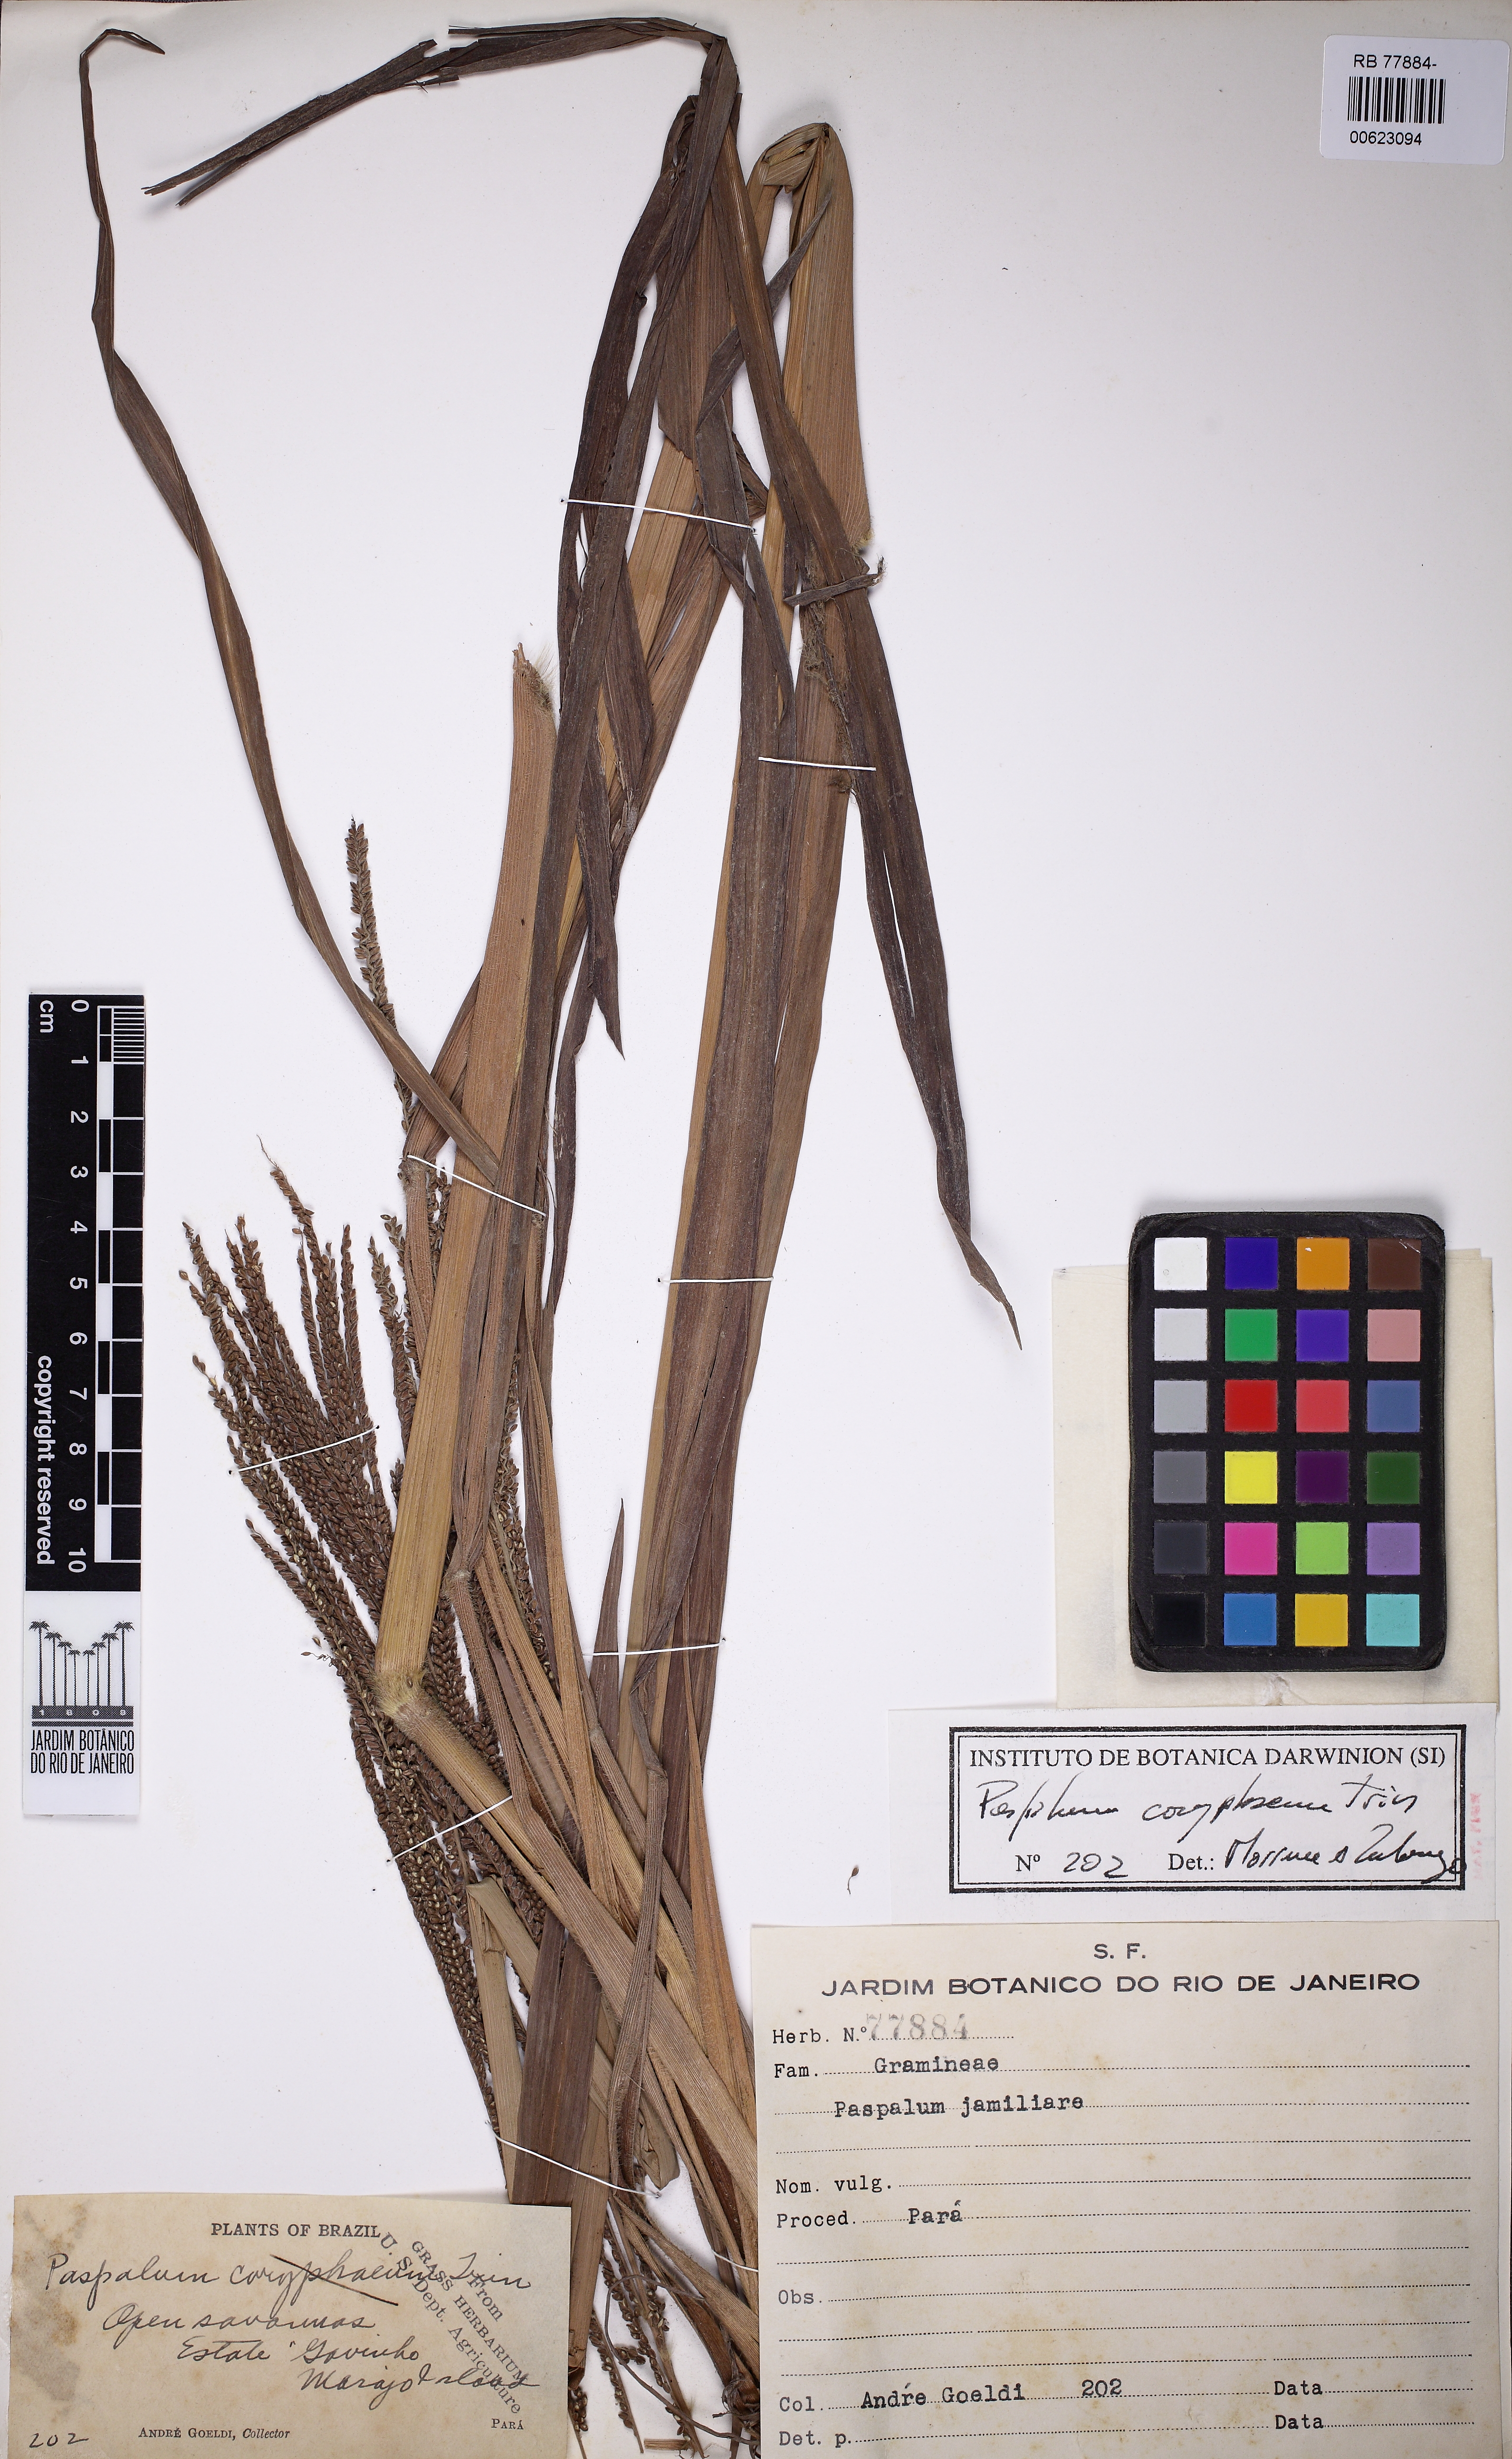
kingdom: Plantae
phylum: Tracheophyta
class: Liliopsida
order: Poales
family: Poaceae
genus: Paspalum
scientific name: Paspalum coryphaeum
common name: Emperor crowngrass
